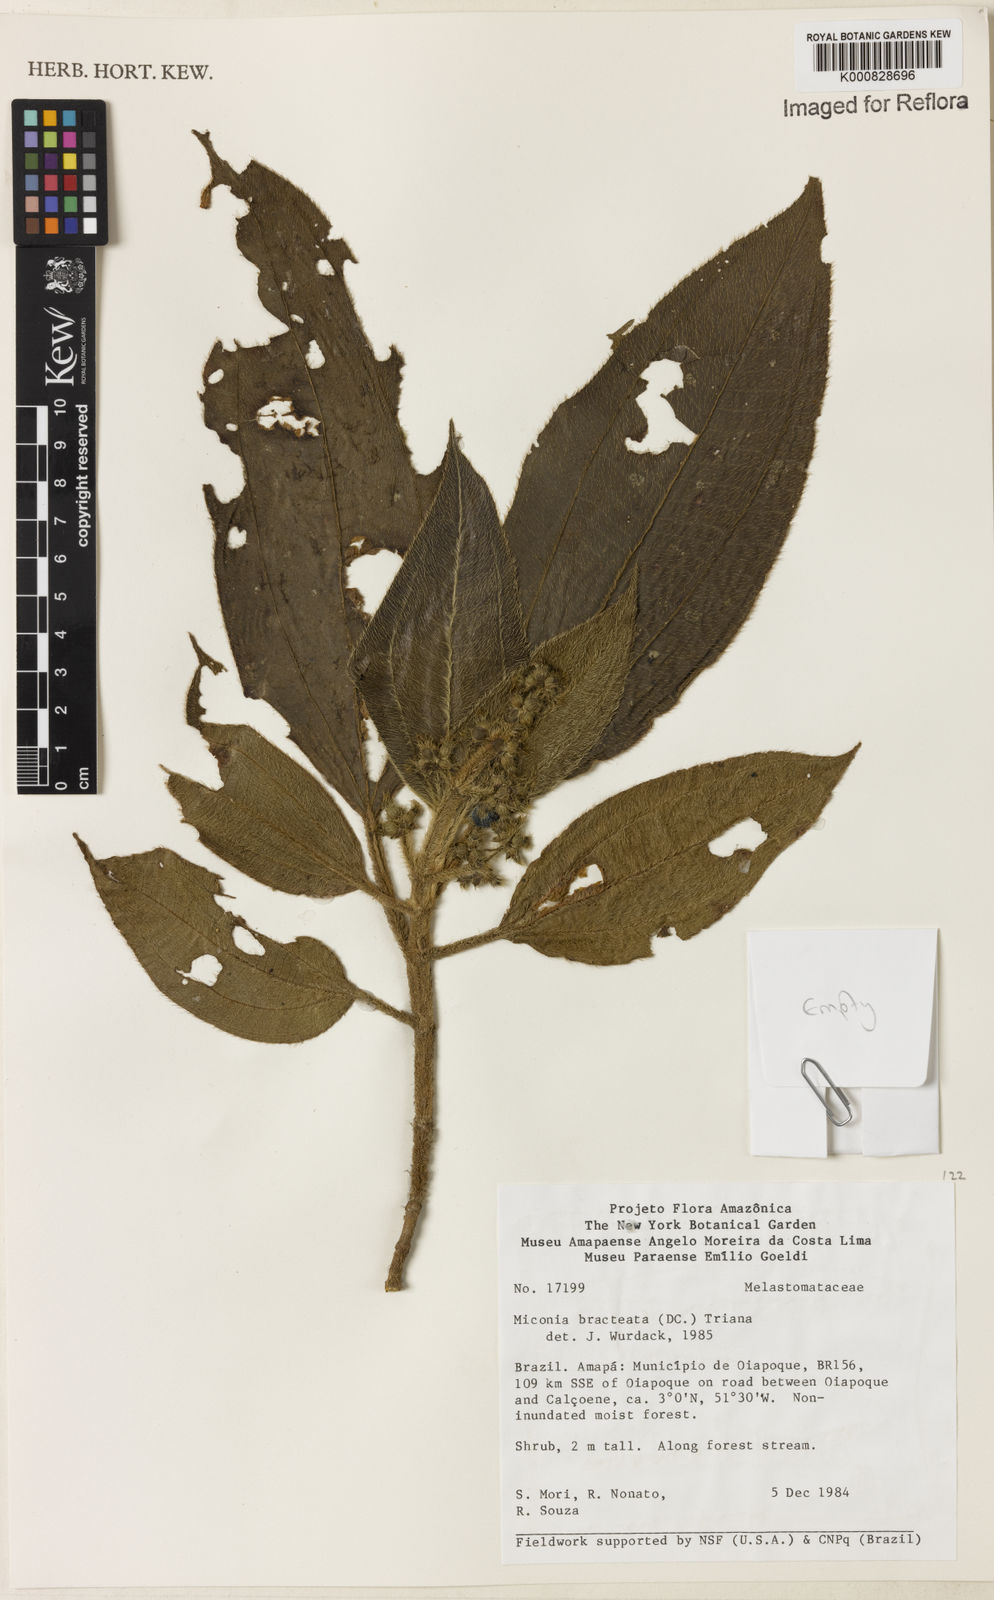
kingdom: Plantae
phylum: Tracheophyta
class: Magnoliopsida
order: Myrtales
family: Melastomataceae
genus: Miconia
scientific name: Miconia bracteata
